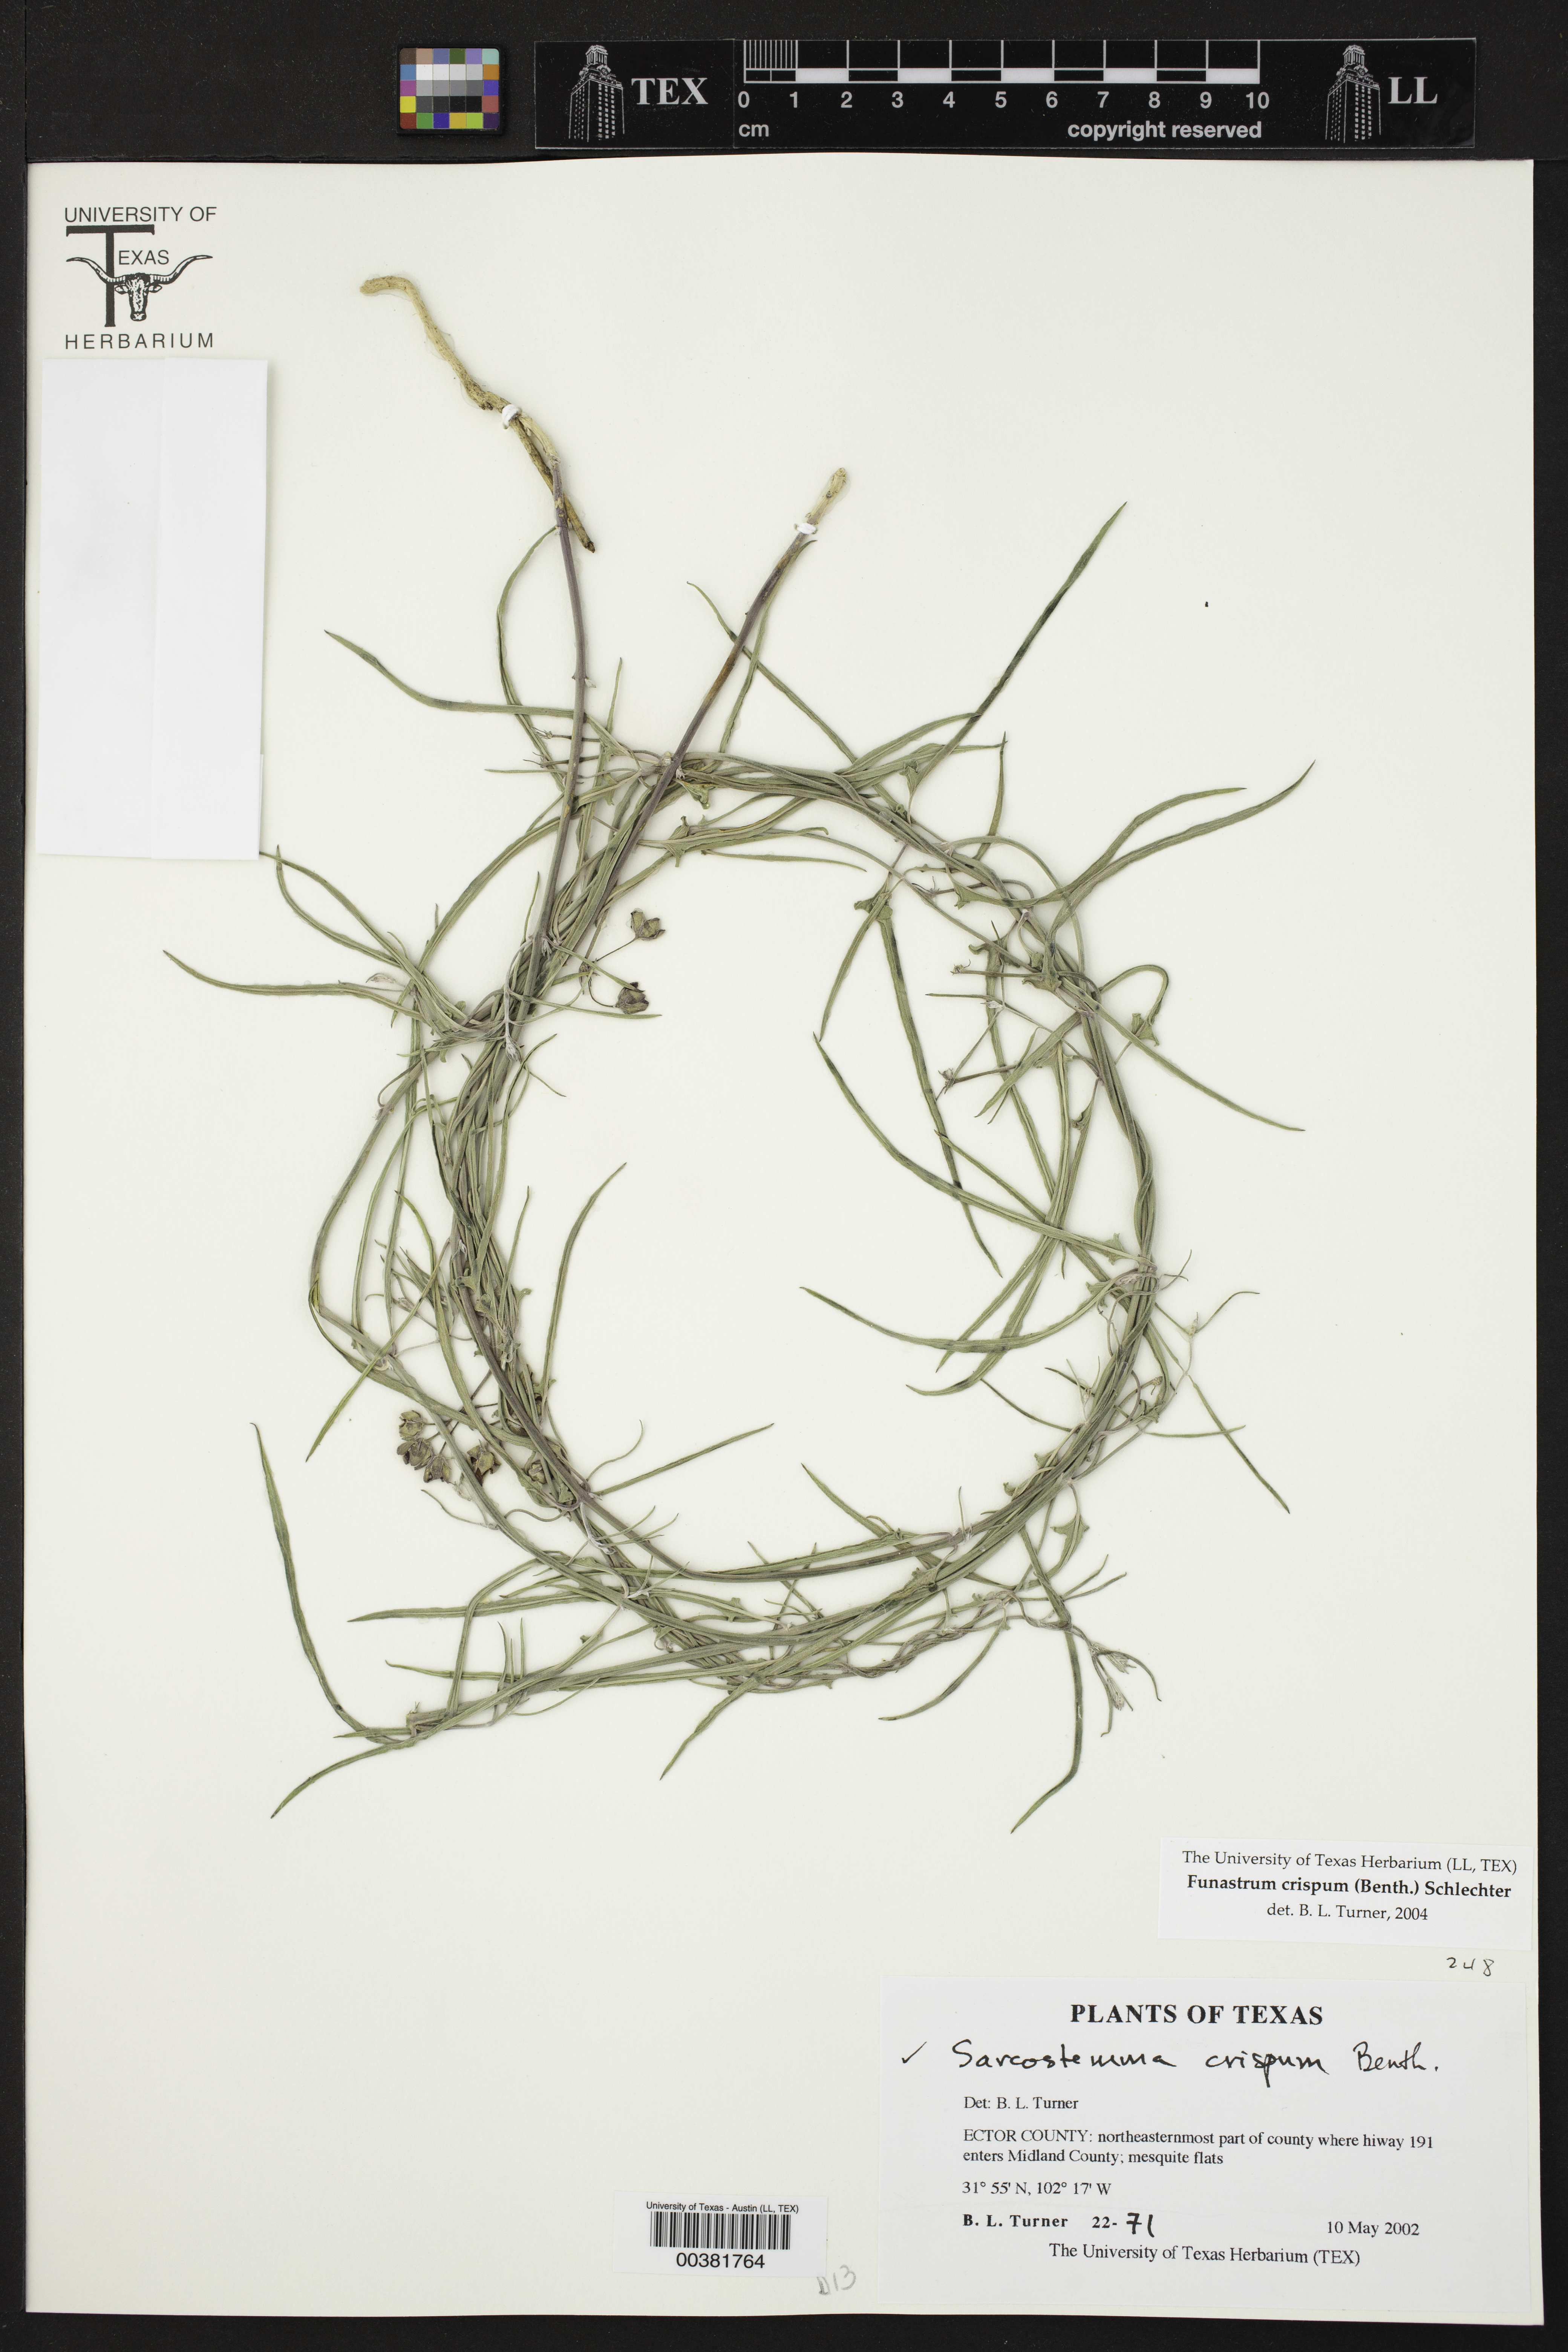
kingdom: Plantae
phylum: Tracheophyta
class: Magnoliopsida
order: Gentianales
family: Apocynaceae
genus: Funastrum
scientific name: Funastrum crispum
